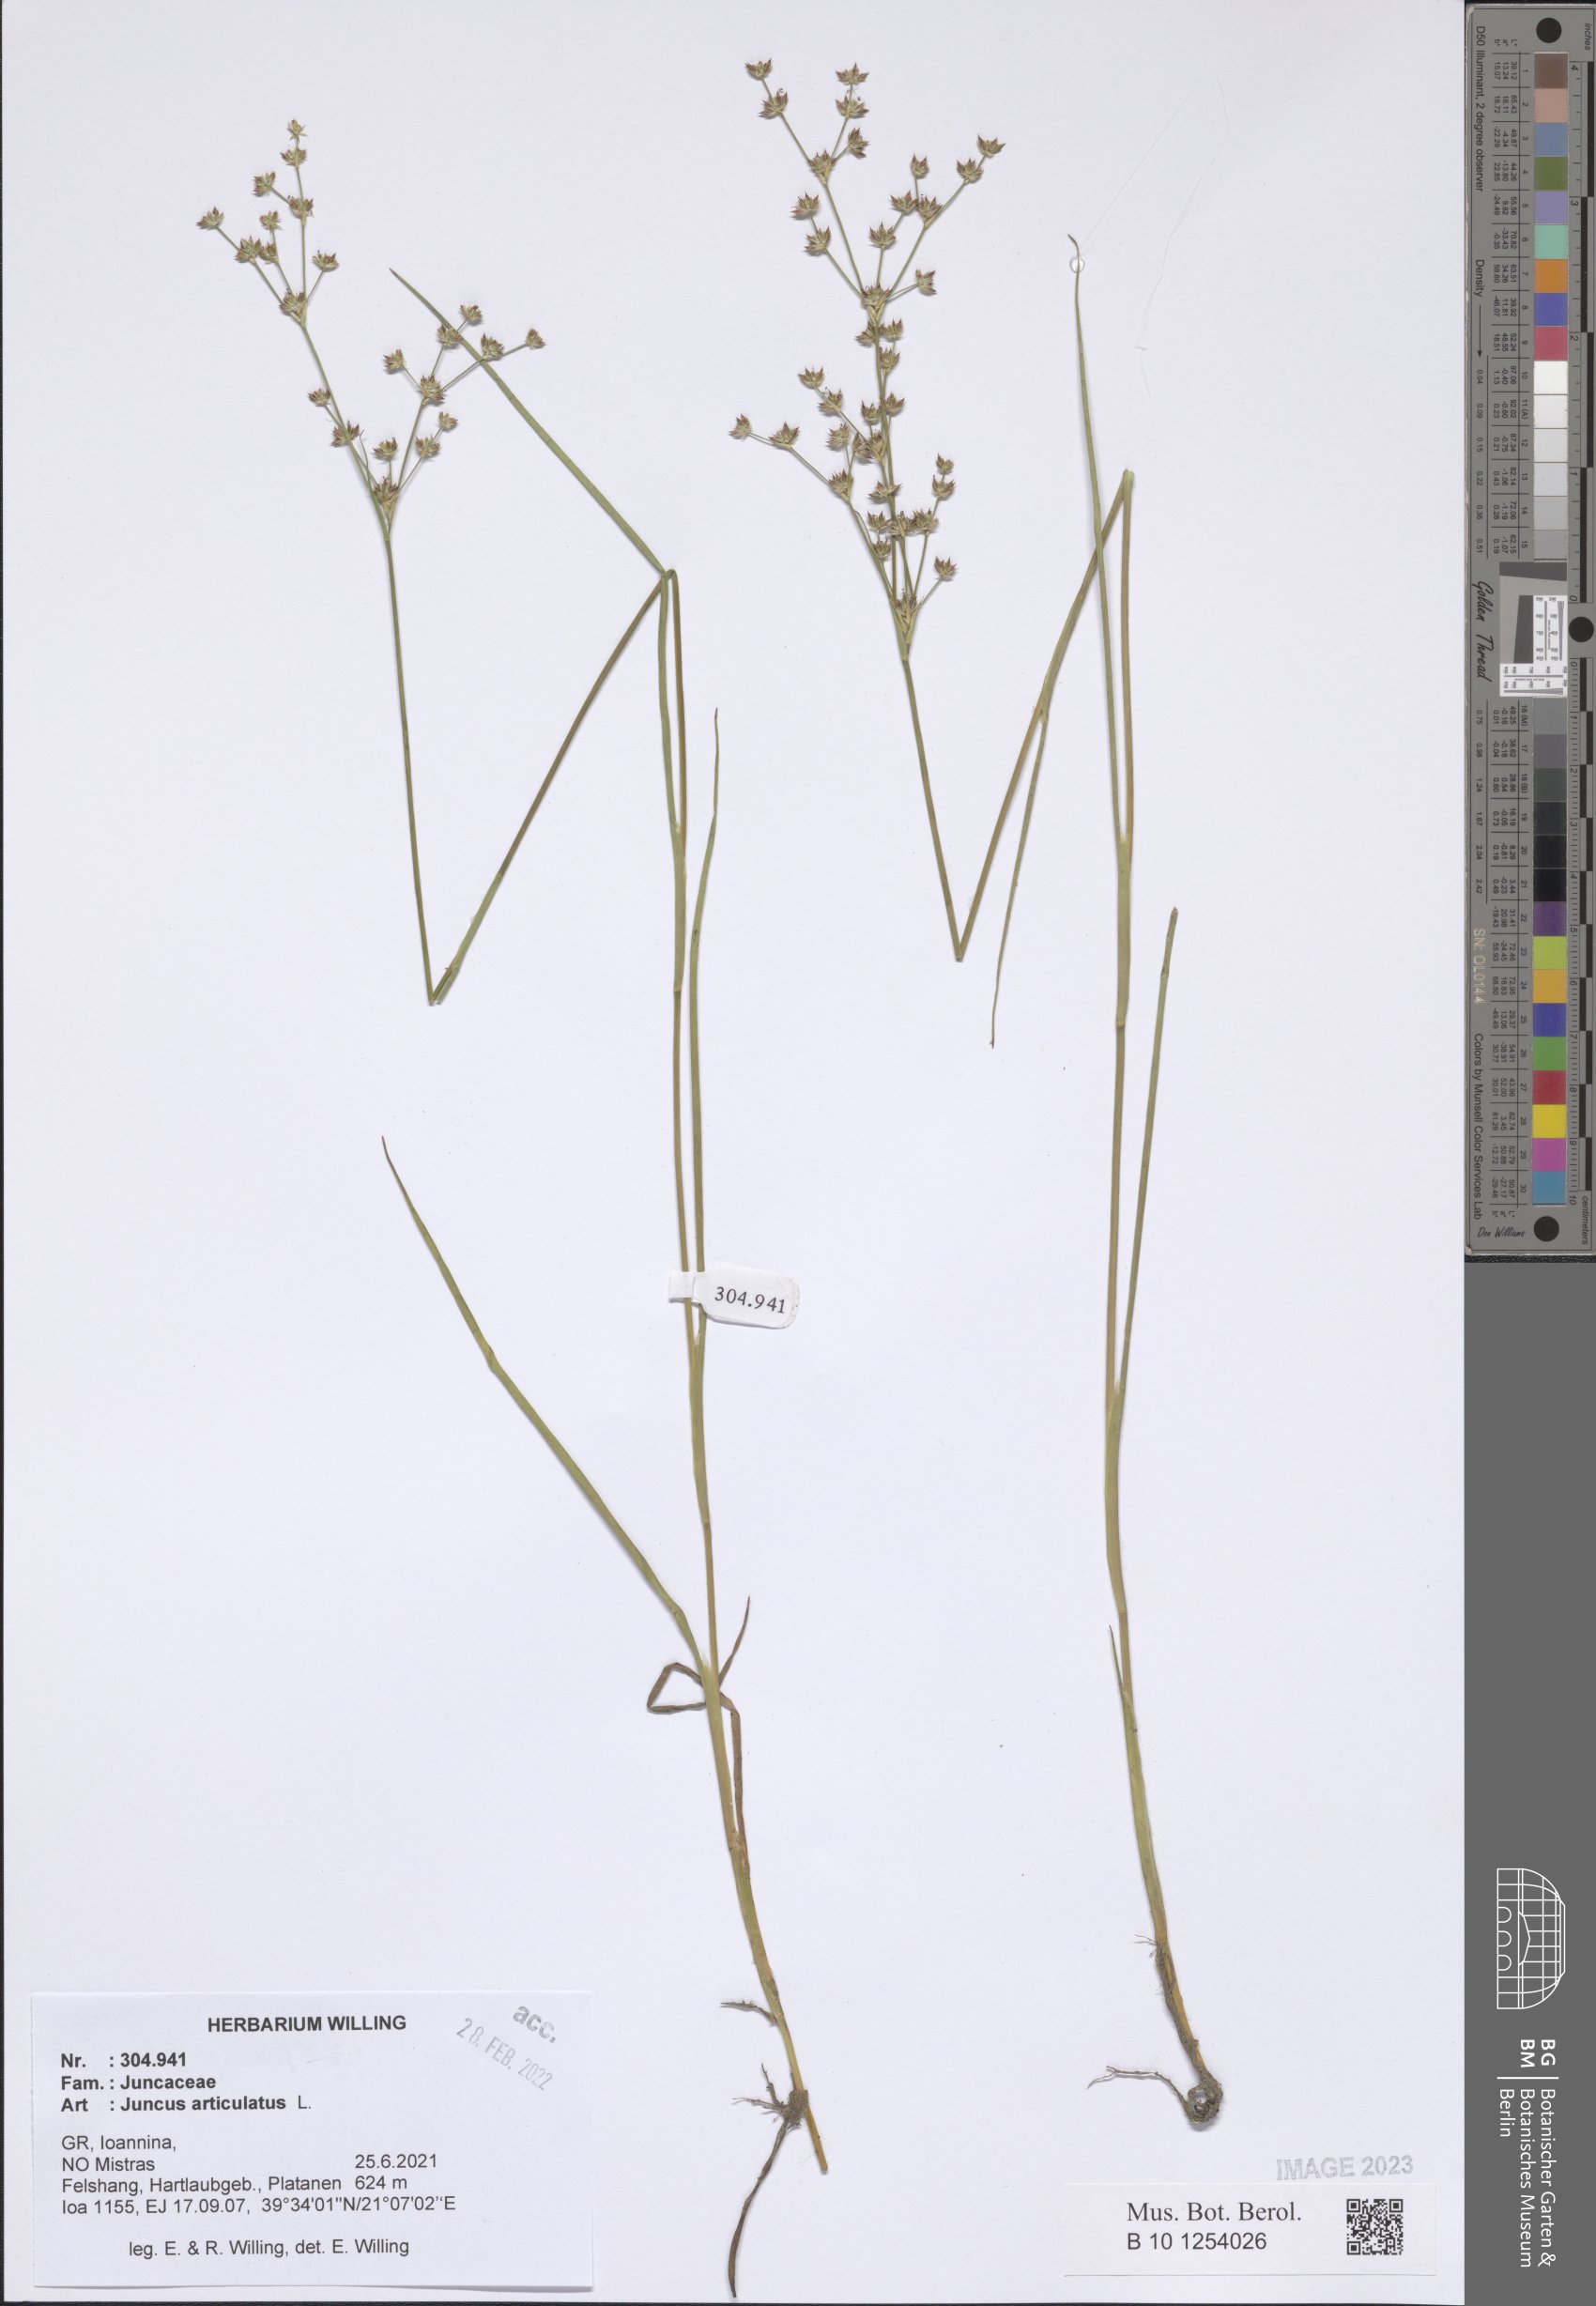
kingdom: Plantae
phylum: Tracheophyta
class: Liliopsida
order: Poales
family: Juncaceae
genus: Juncus
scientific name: Juncus articulatus
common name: Jointed rush
